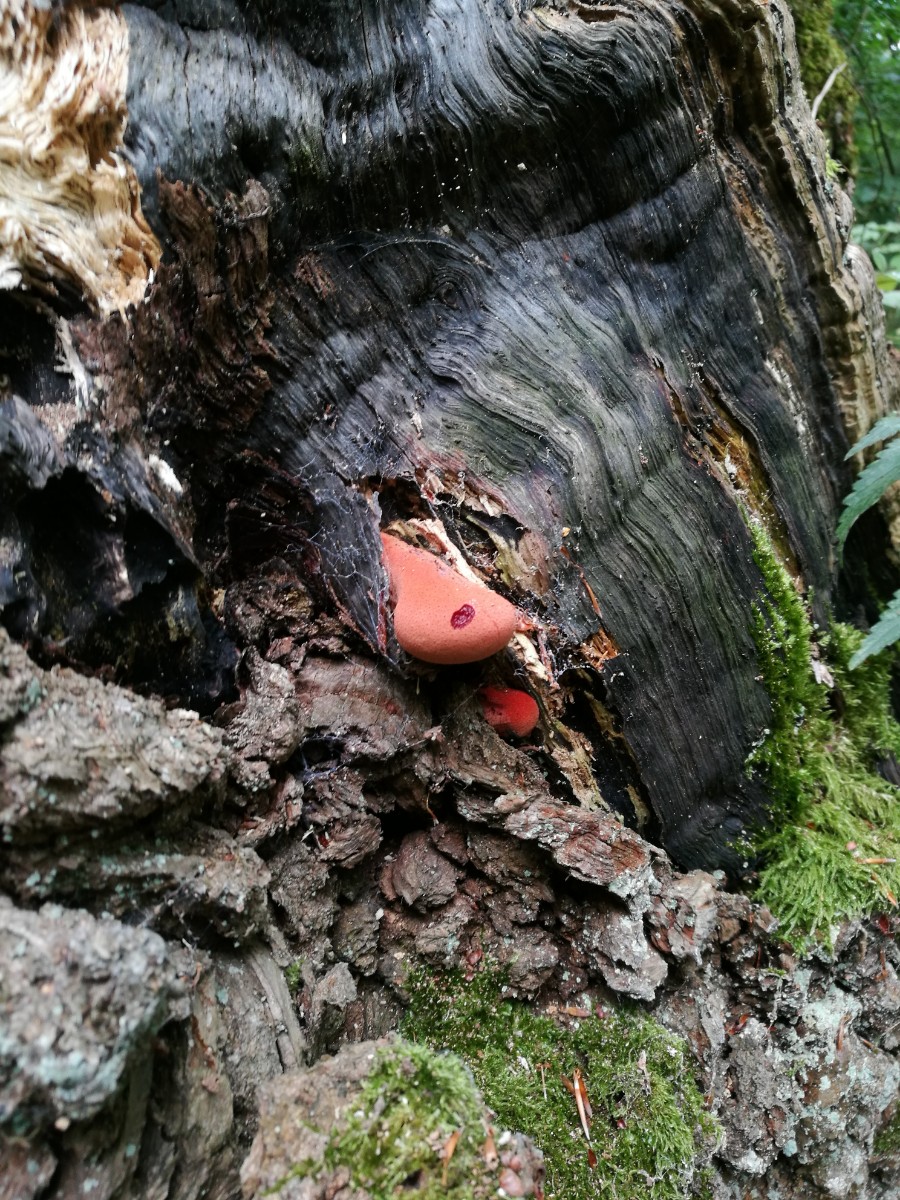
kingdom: Fungi
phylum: Basidiomycota
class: Agaricomycetes
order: Agaricales
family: Fistulinaceae
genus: Fistulina
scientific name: Fistulina hepatica
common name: oksetunge
